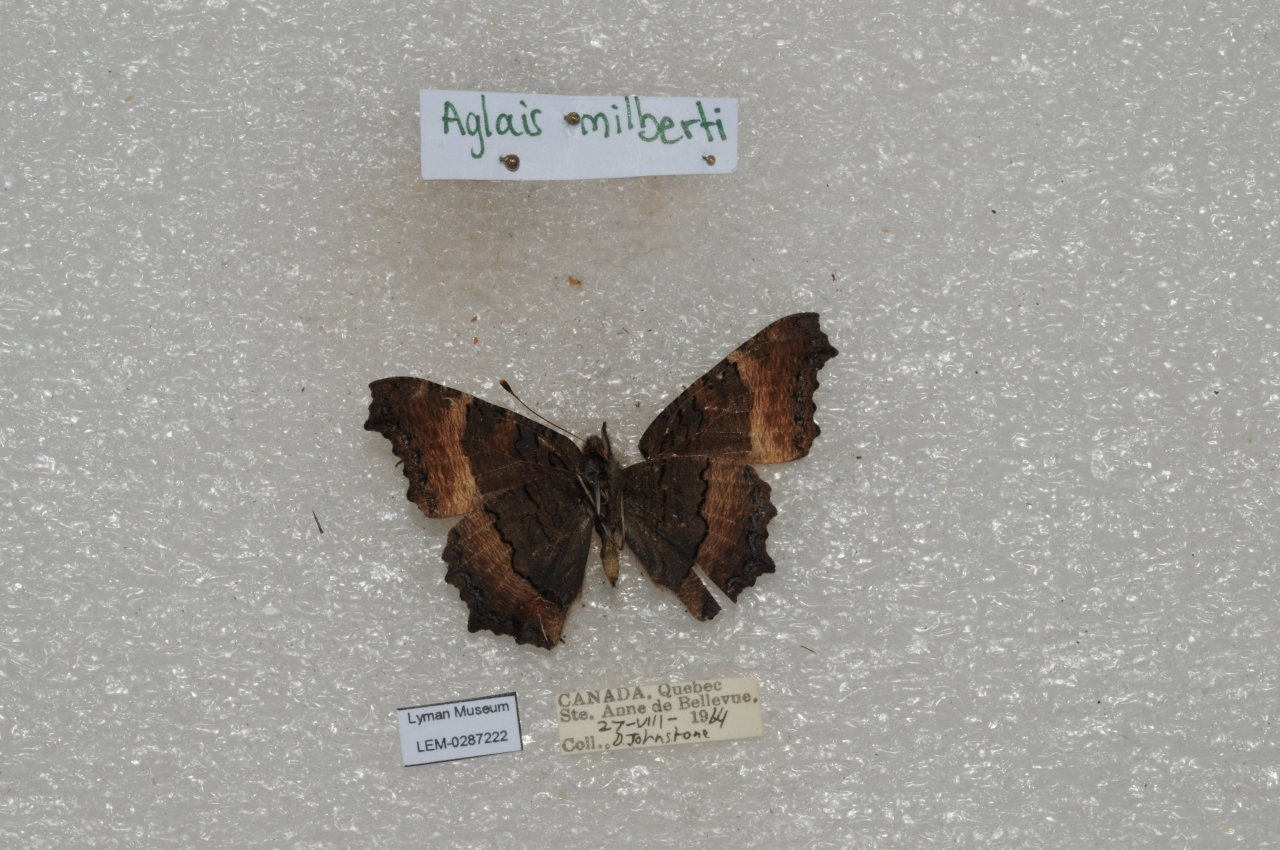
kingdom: Animalia
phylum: Arthropoda
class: Insecta
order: Lepidoptera
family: Nymphalidae
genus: Aglais
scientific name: Aglais milberti
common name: Milbert's Tortoiseshell
